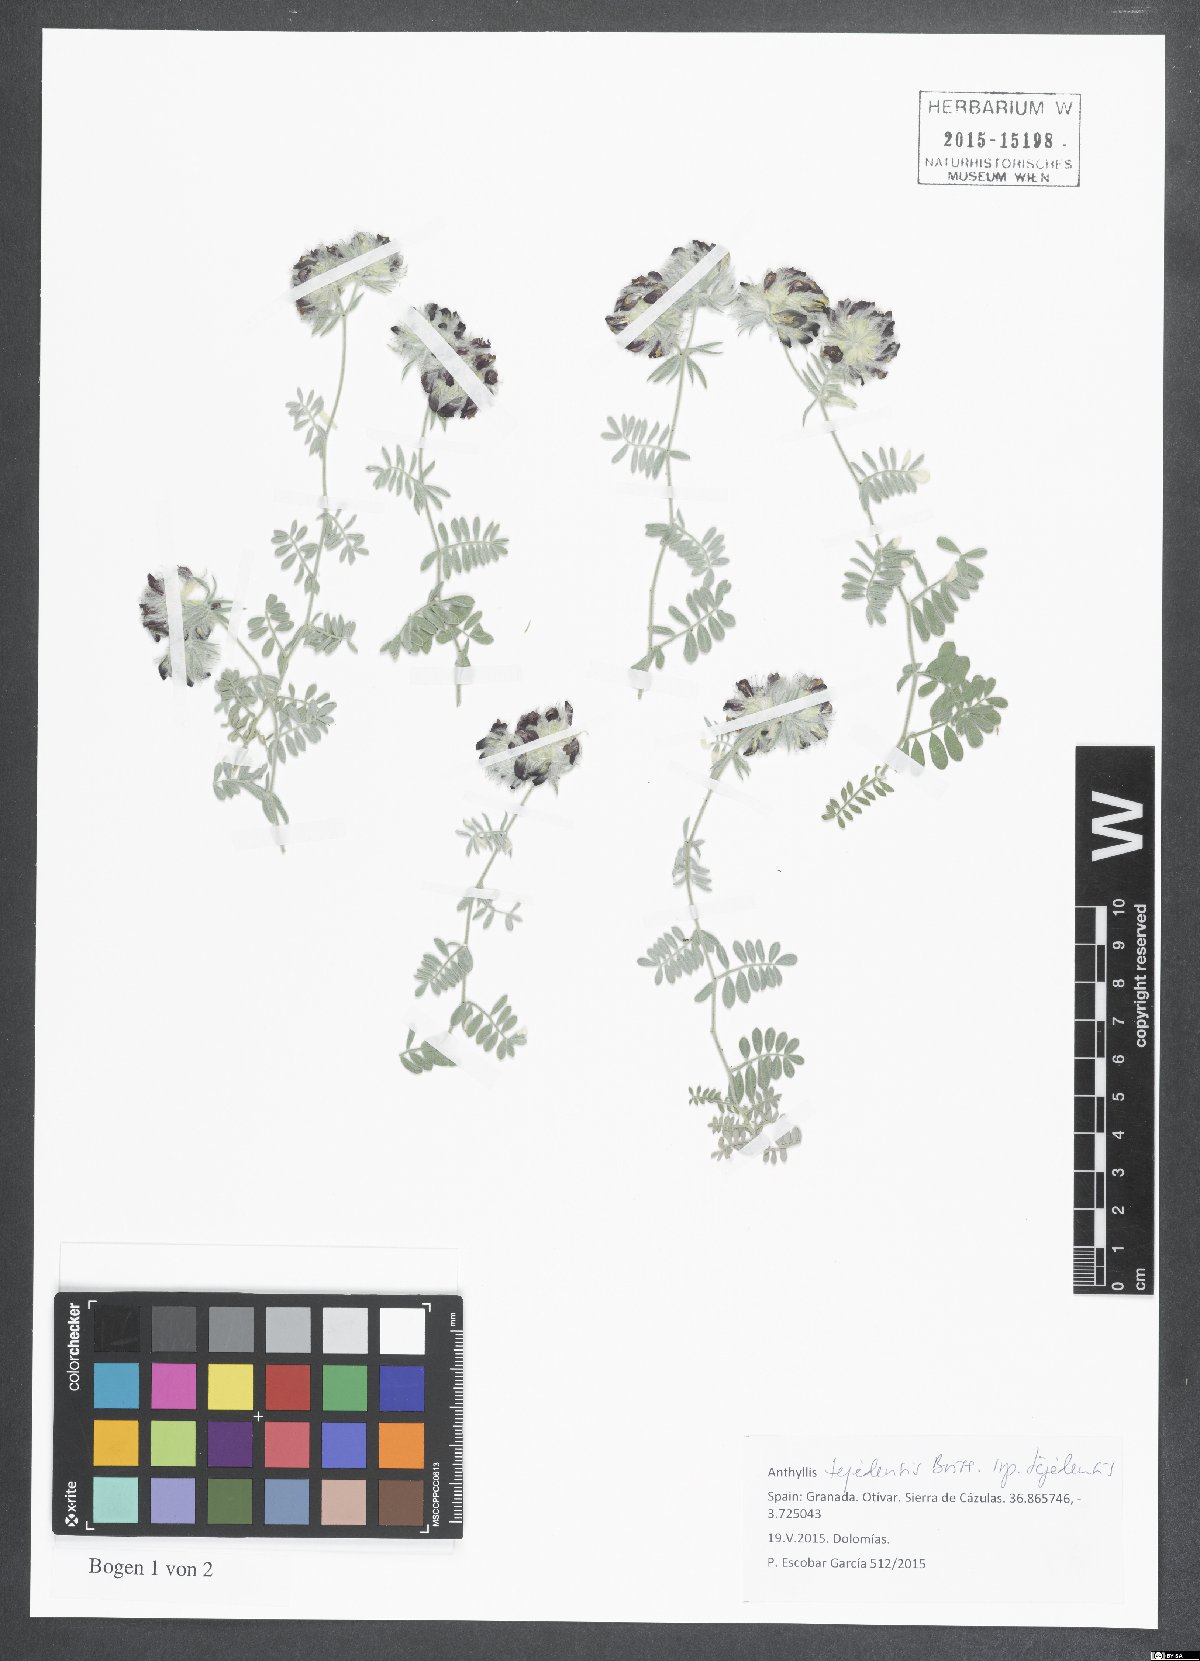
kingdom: Plantae
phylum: Tracheophyta
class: Magnoliopsida
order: Fabales
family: Fabaceae
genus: Anthyllis
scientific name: Anthyllis tejedensis
